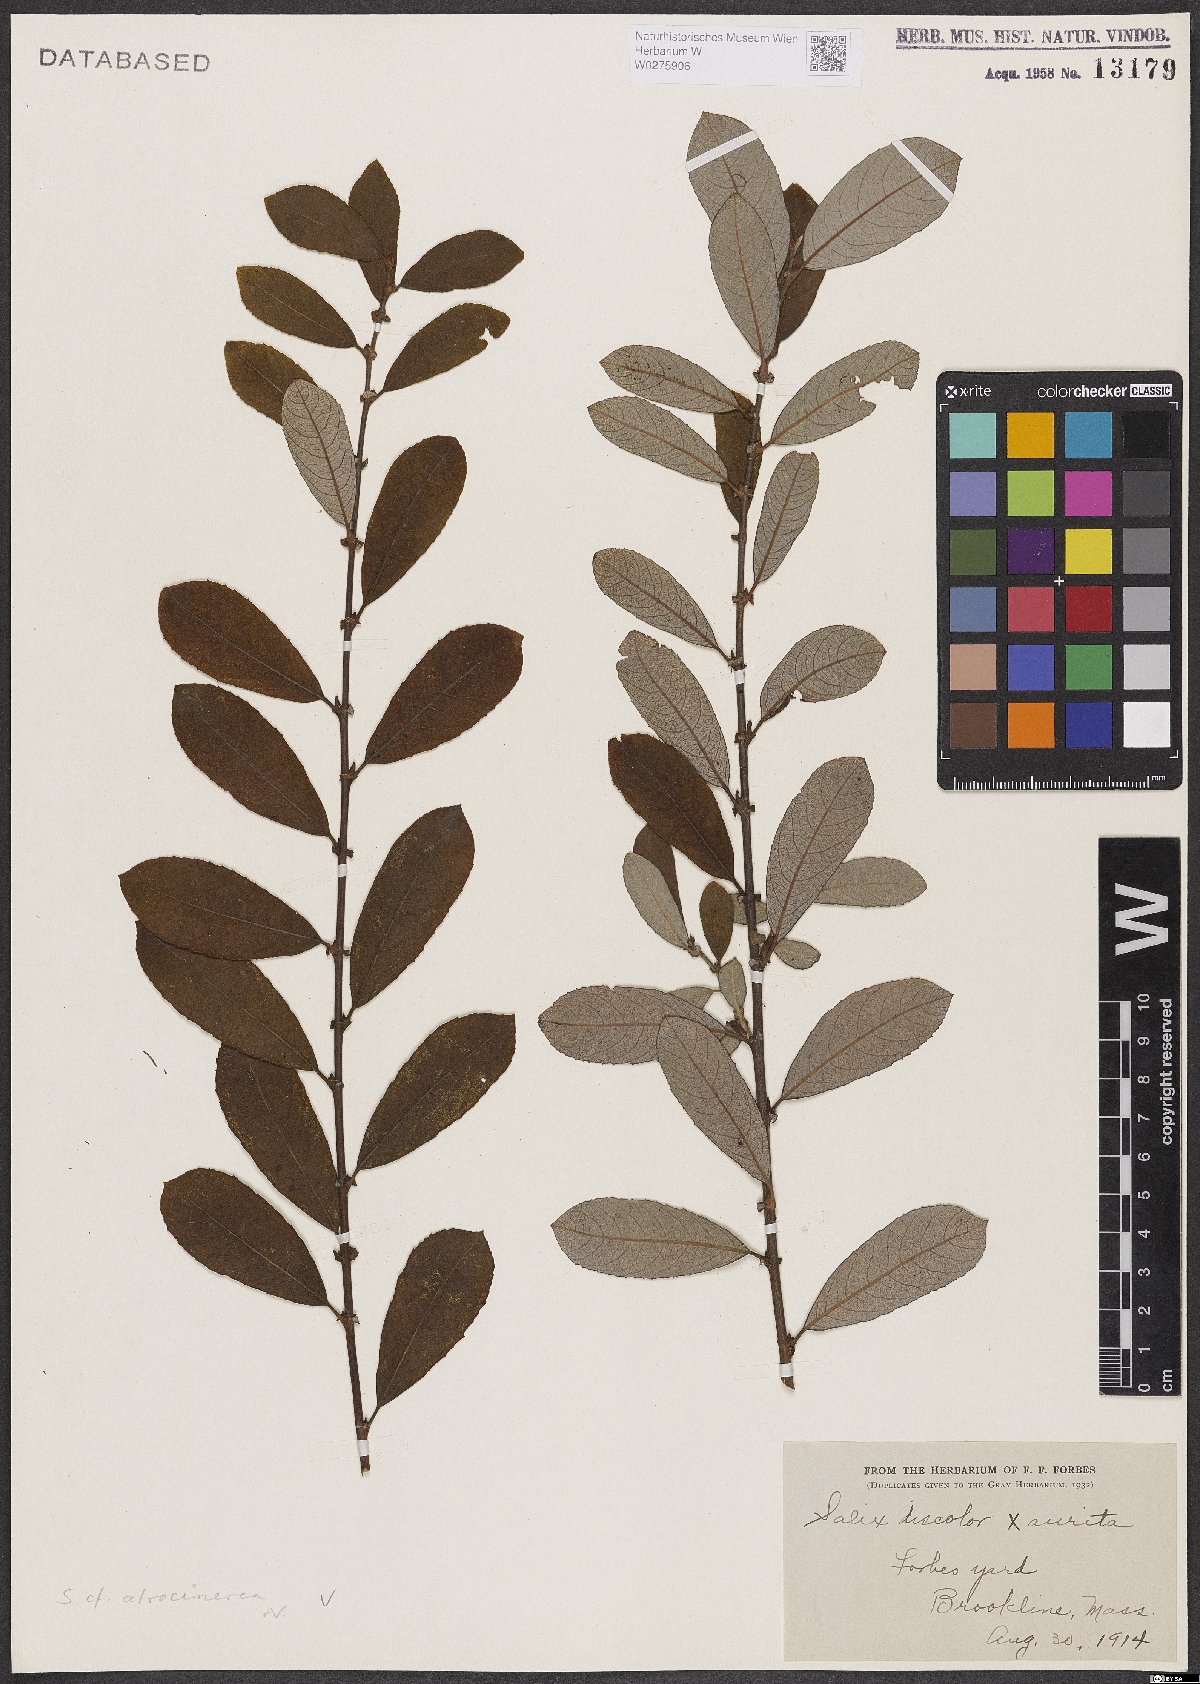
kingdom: Plantae
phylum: Tracheophyta
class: Magnoliopsida
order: Malpighiales
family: Salicaceae
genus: Salix
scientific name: Salix atrocinerea
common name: Rusty willow
